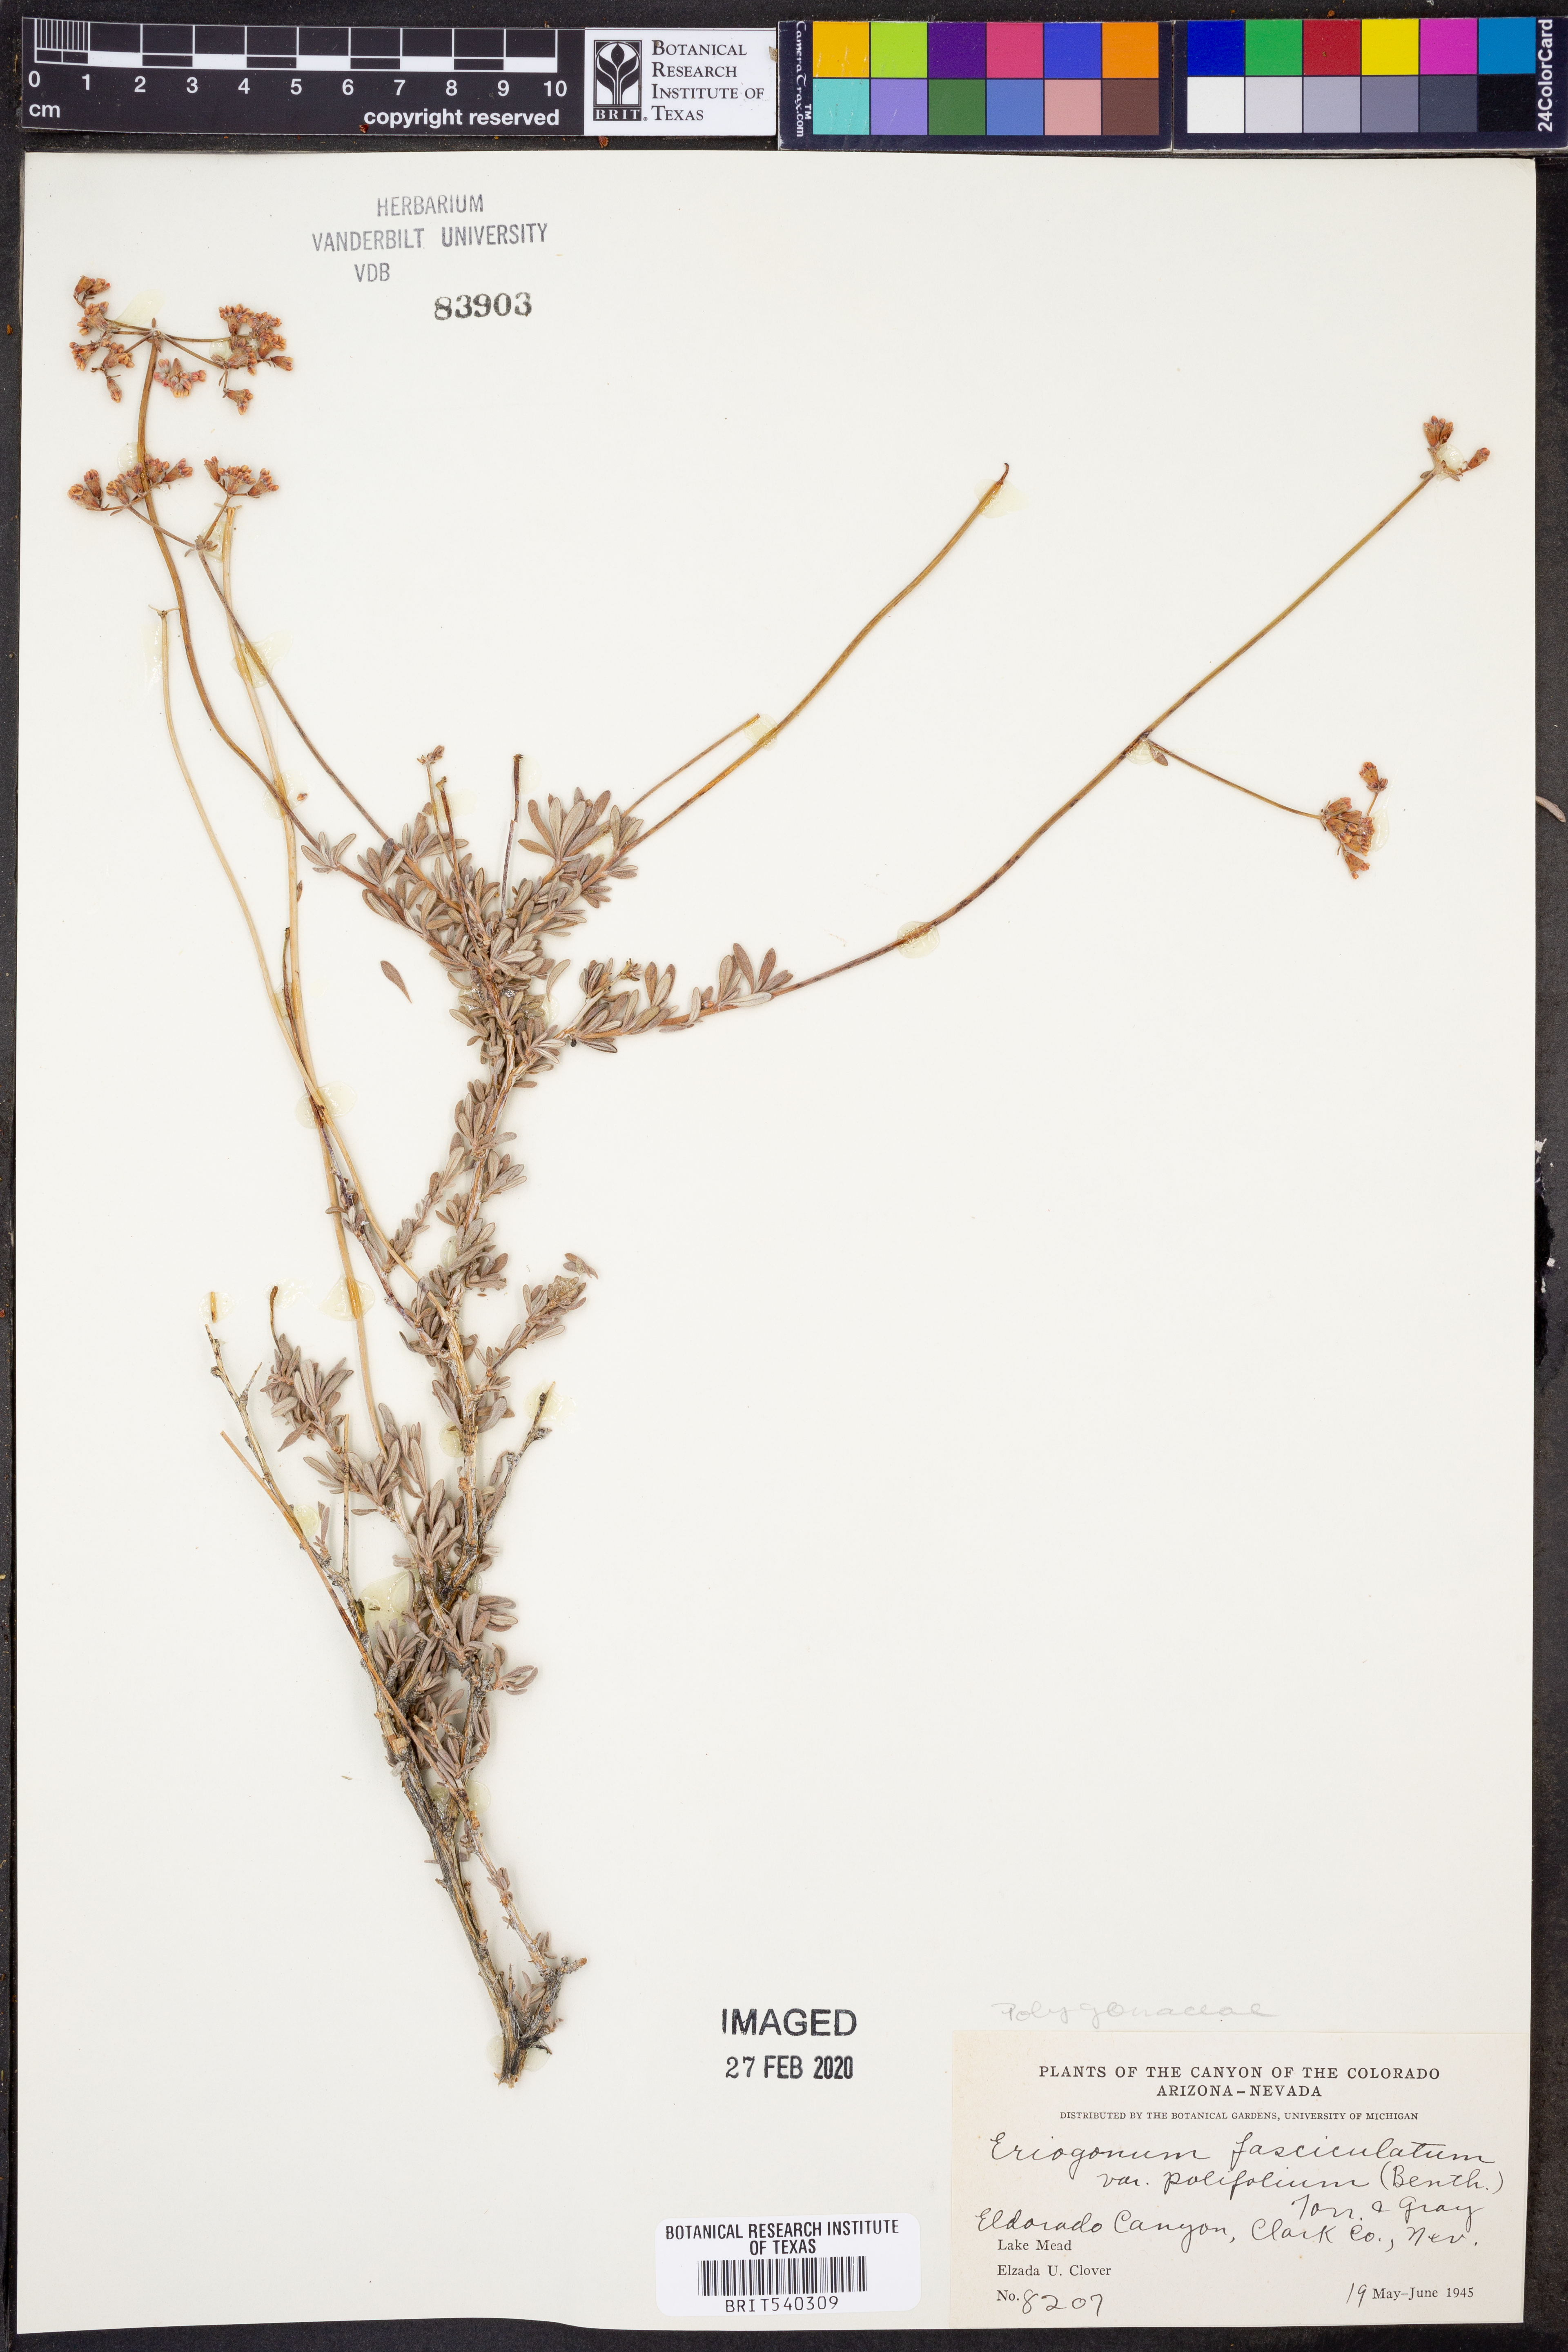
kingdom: Plantae
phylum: Tracheophyta
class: Magnoliopsida
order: Caryophyllales
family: Polygonaceae
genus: Eriogonum
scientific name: Eriogonum fasciculatum
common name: California wild buckwheat
